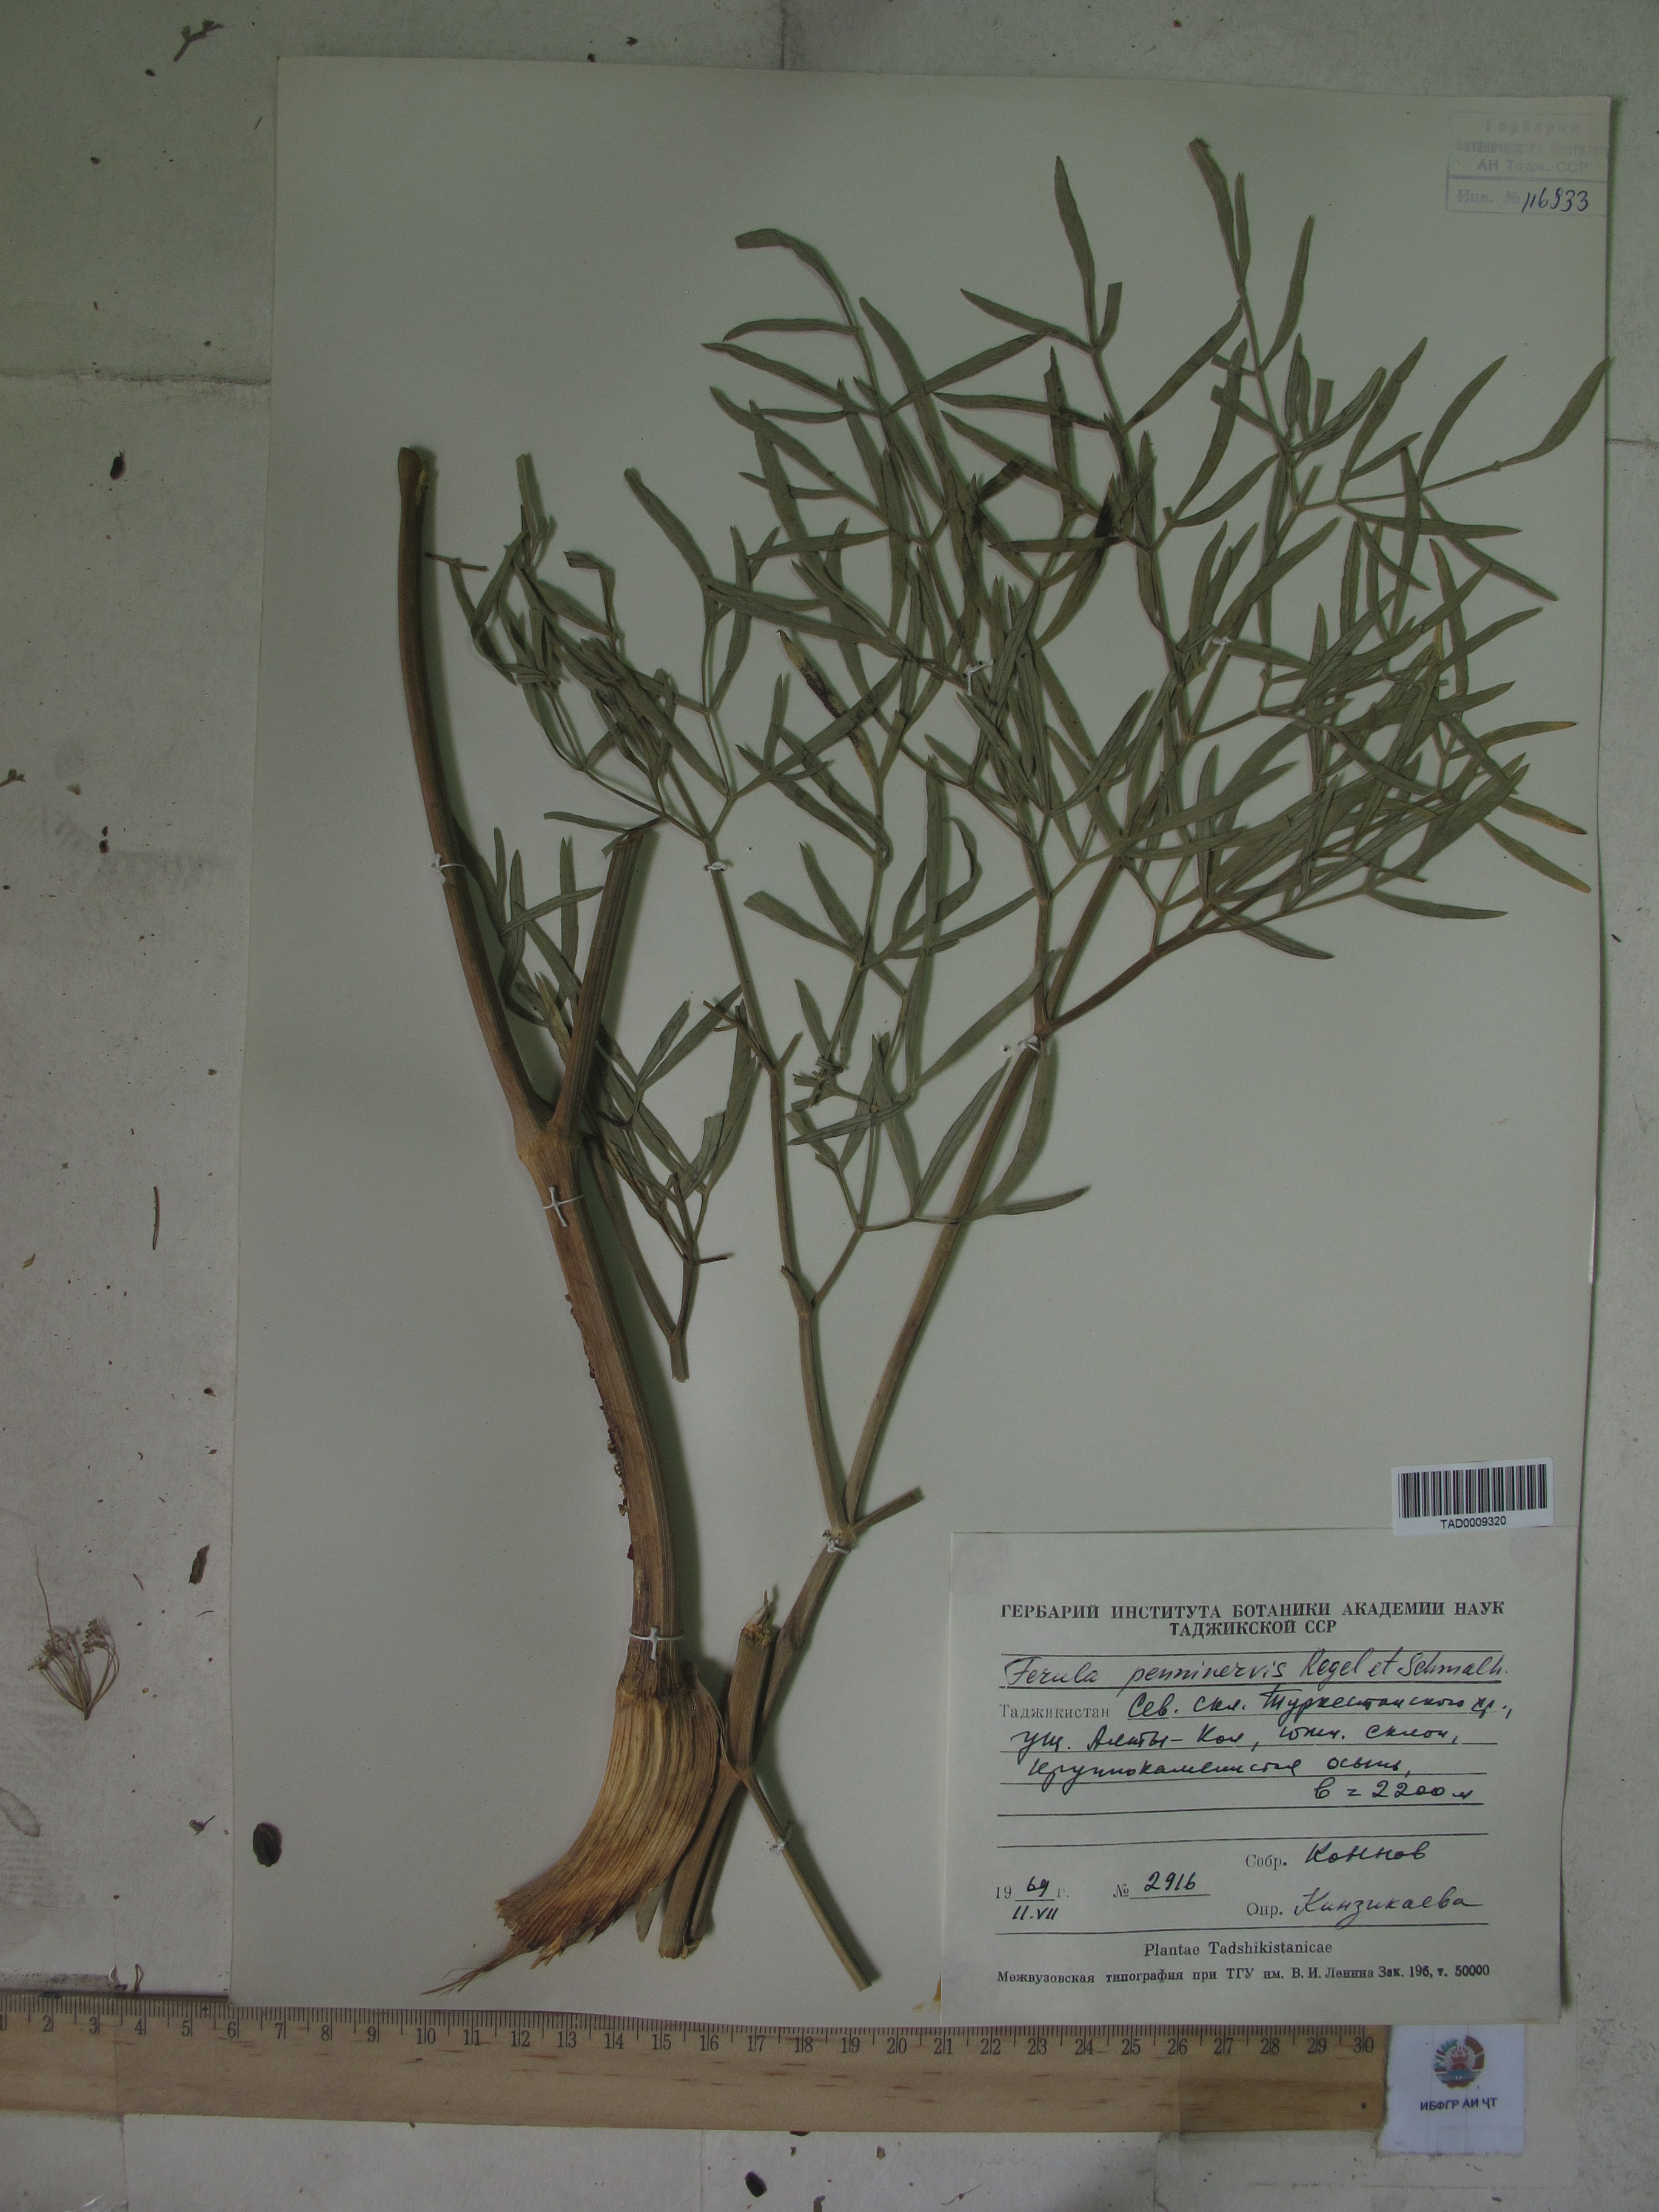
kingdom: Plantae
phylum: Tracheophyta
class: Magnoliopsida
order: Apiales
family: Apiaceae
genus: Ferula
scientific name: Ferula penninervis
